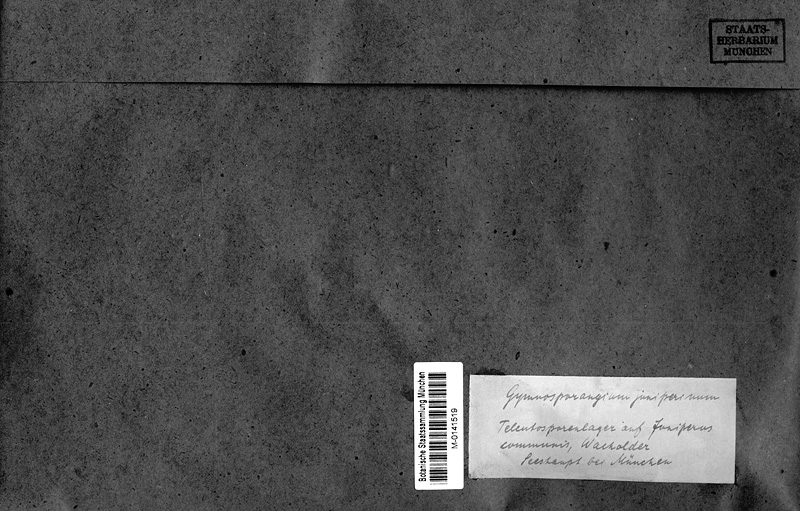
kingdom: Plantae
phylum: Tracheophyta
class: Pinopsida
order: Pinales
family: Cupressaceae
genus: Juniperus
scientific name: Juniperus communis
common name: Common juniper
